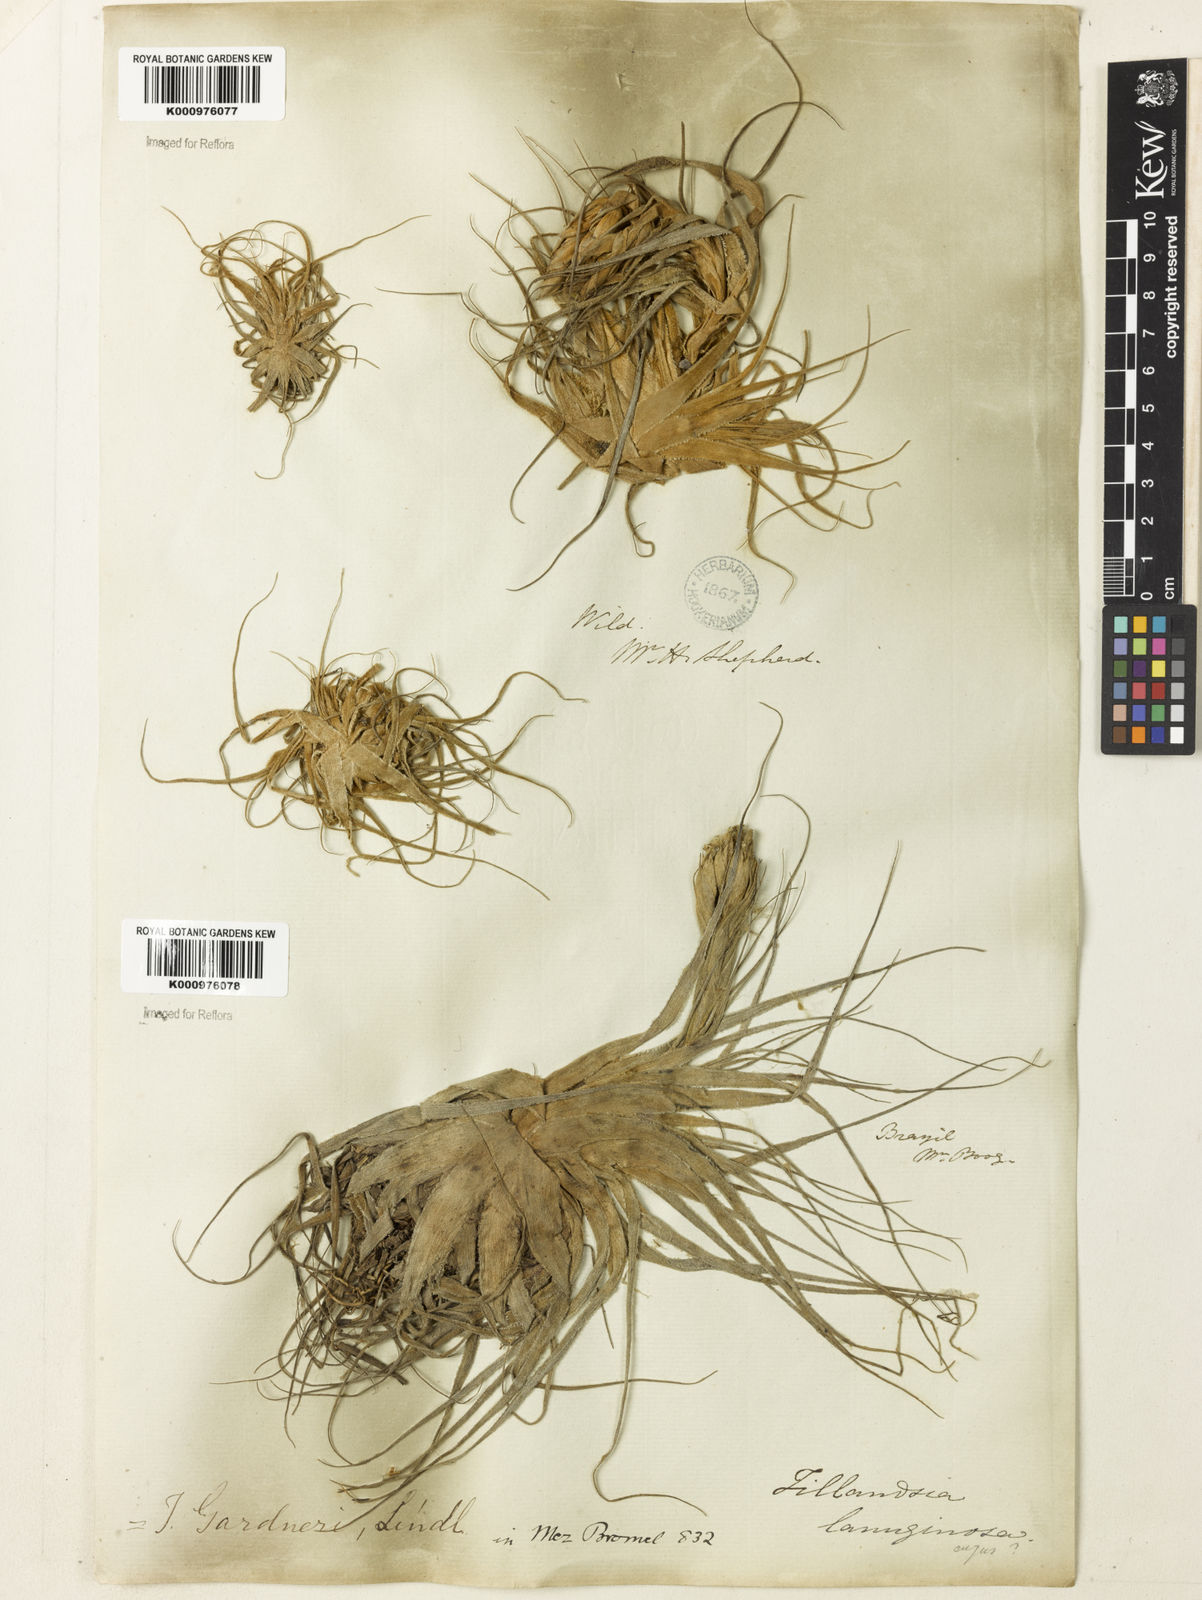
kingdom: Plantae
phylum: Tracheophyta
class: Liliopsida
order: Poales
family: Bromeliaceae
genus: Tillandsia
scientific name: Tillandsia gardneri
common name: Airplant
